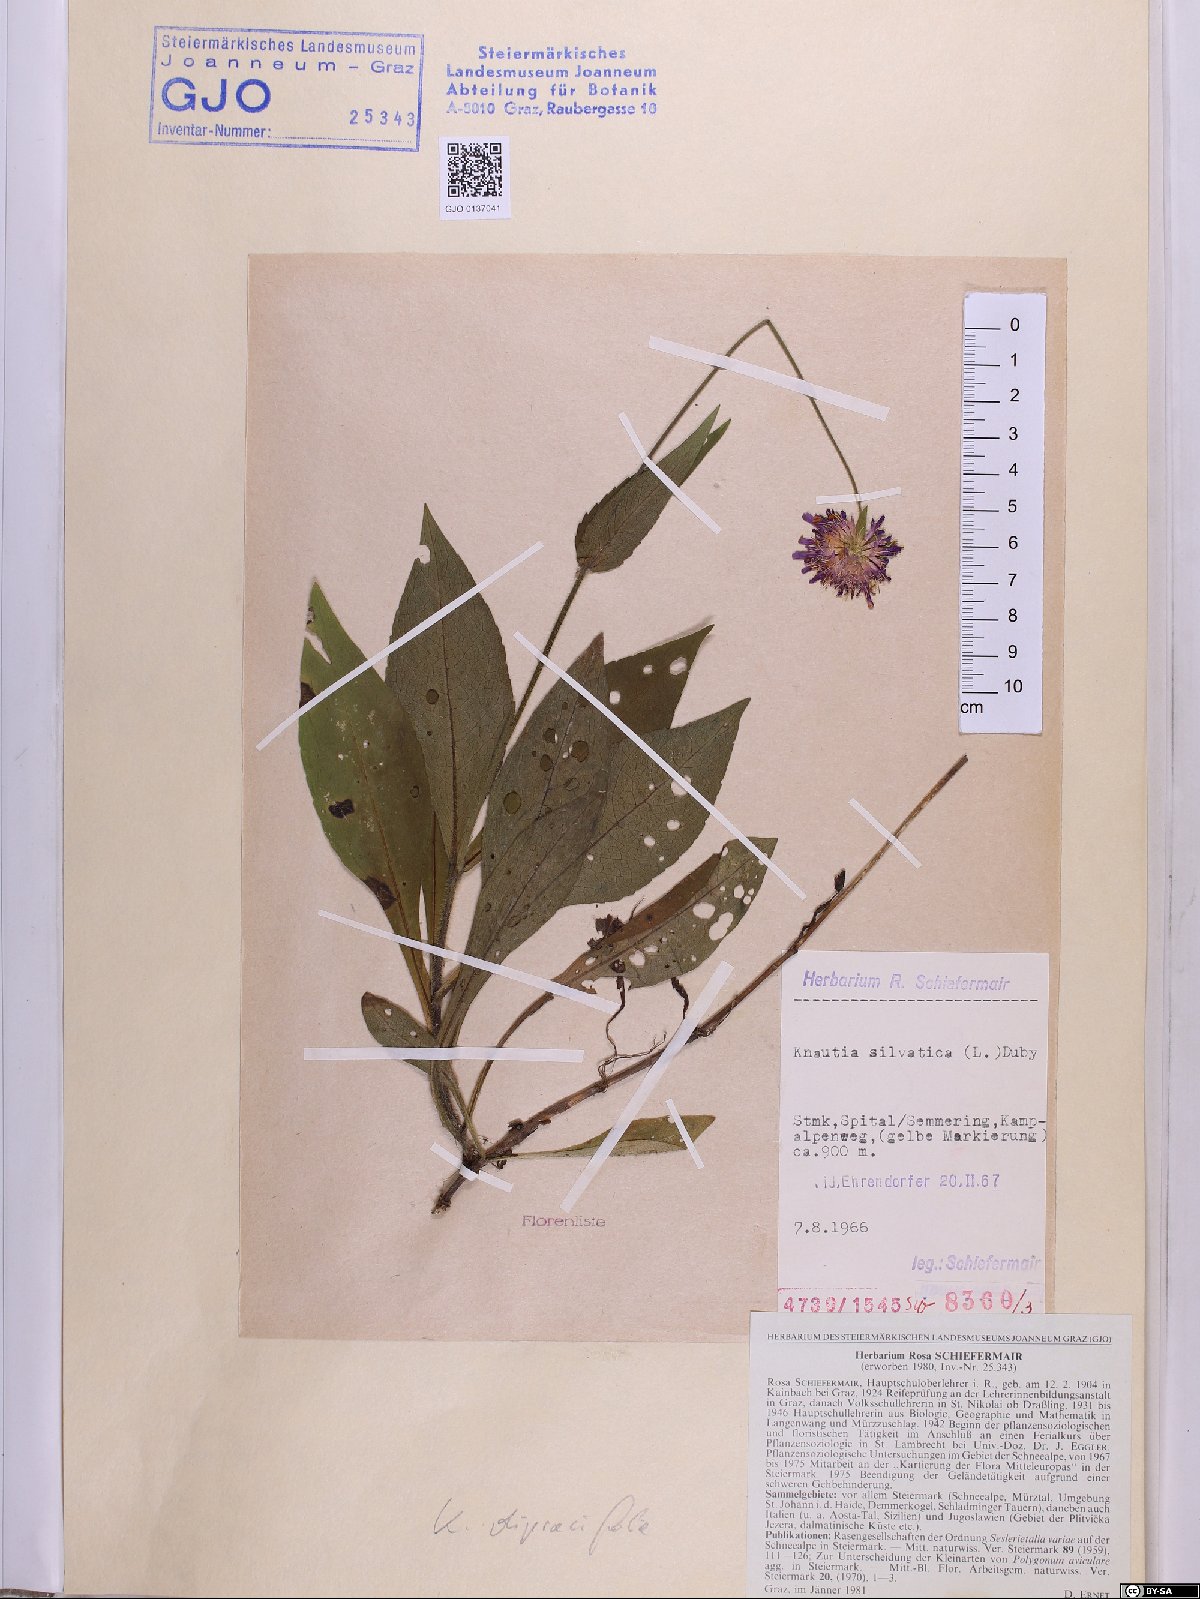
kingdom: Plantae
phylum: Tracheophyta
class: Magnoliopsida
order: Dipsacales
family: Caprifoliaceae
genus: Knautia
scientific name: Knautia drymeia
